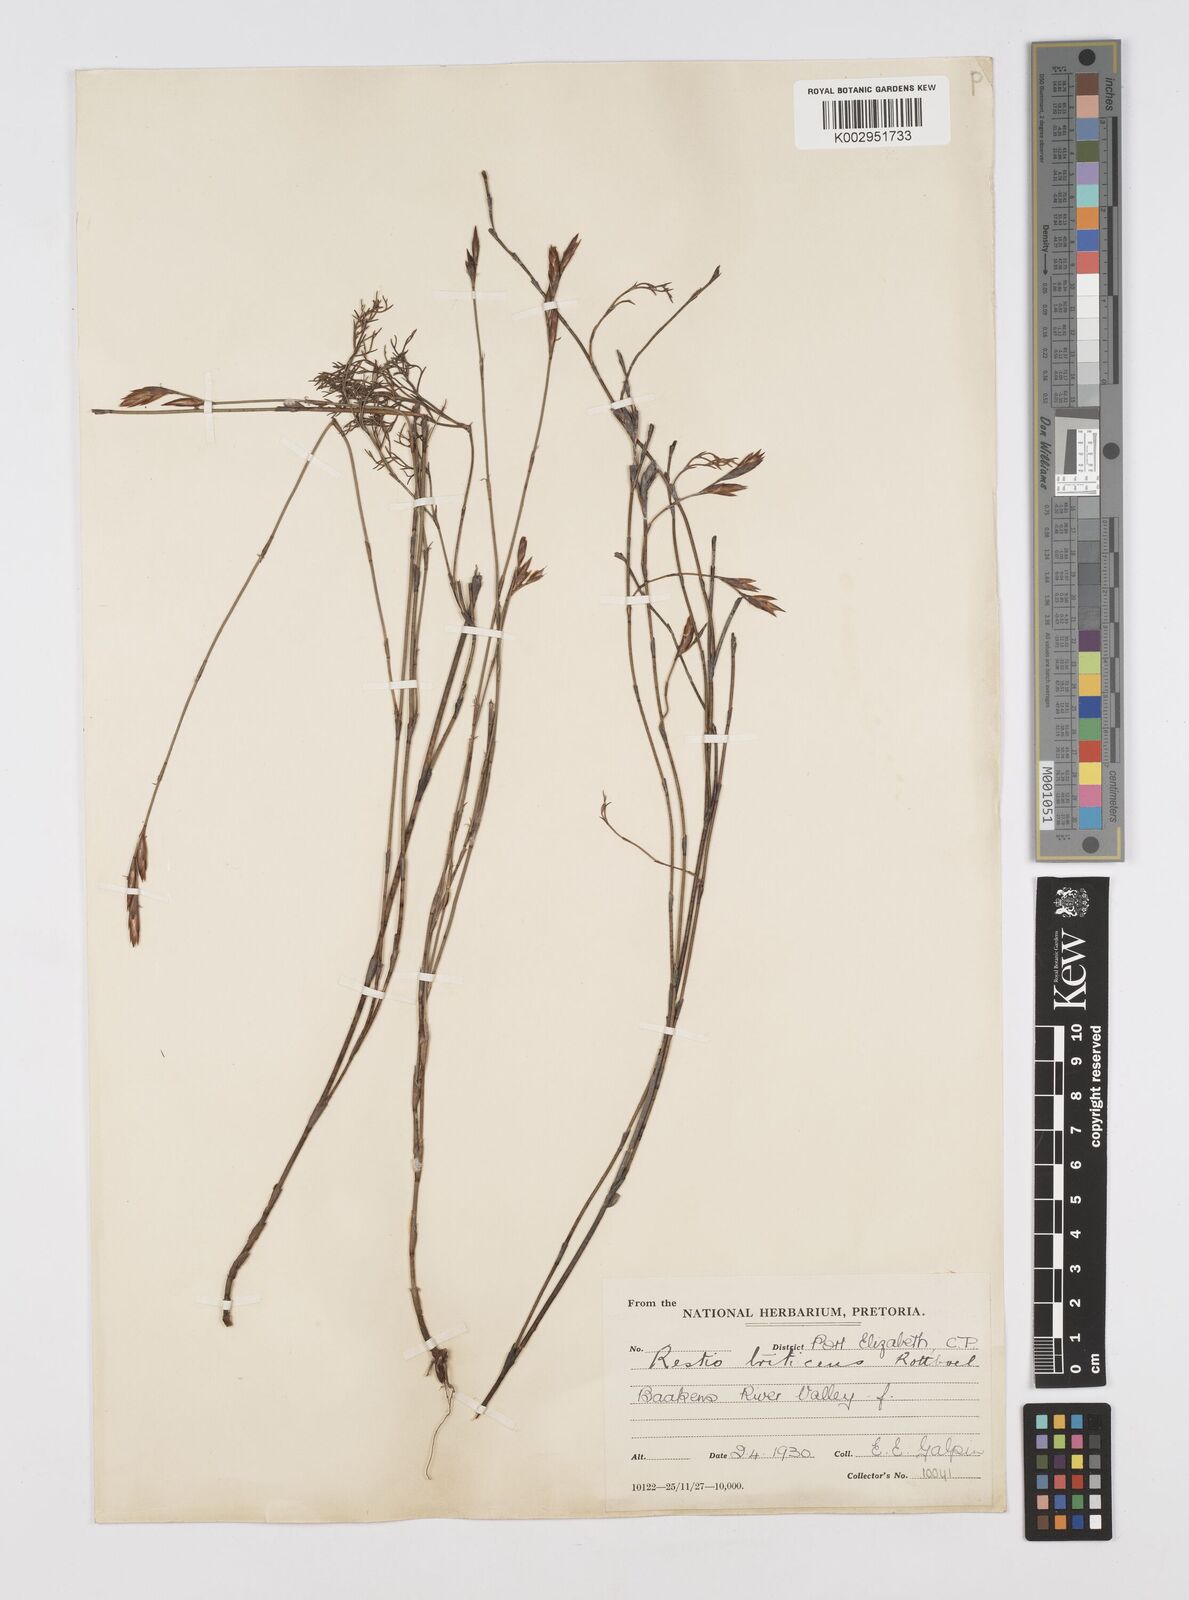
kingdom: Plantae
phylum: Tracheophyta
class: Liliopsida
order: Poales
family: Restionaceae
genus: Restio
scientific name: Restio triticeus
